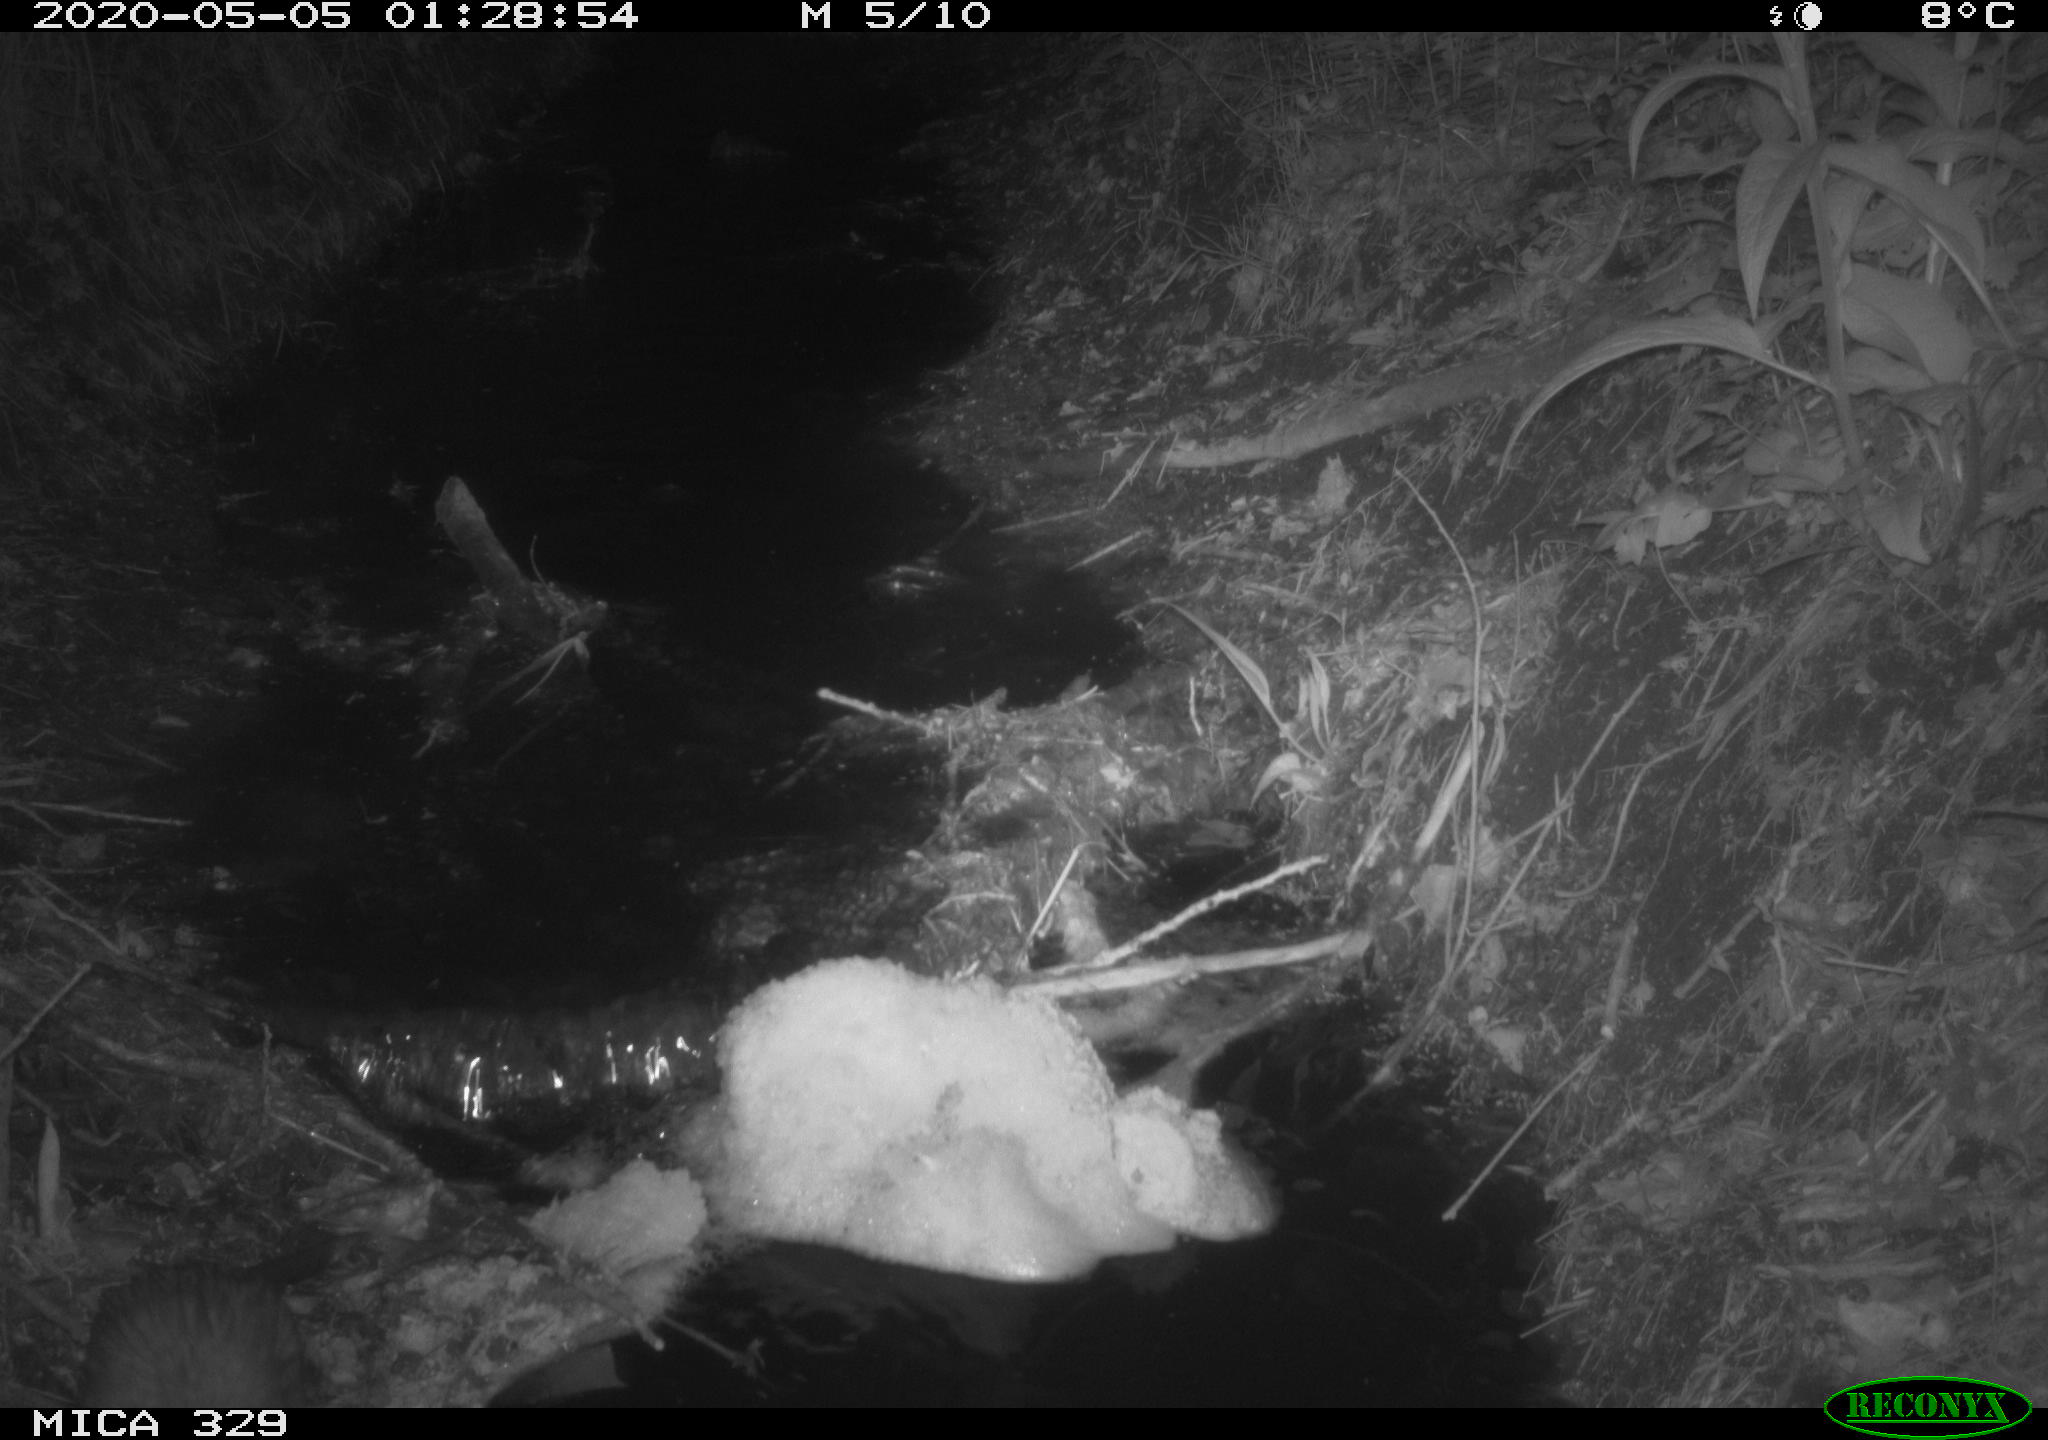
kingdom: Animalia
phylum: Chordata
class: Mammalia
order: Rodentia
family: Cricetidae
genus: Ondatra
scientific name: Ondatra zibethicus
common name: Muskrat
